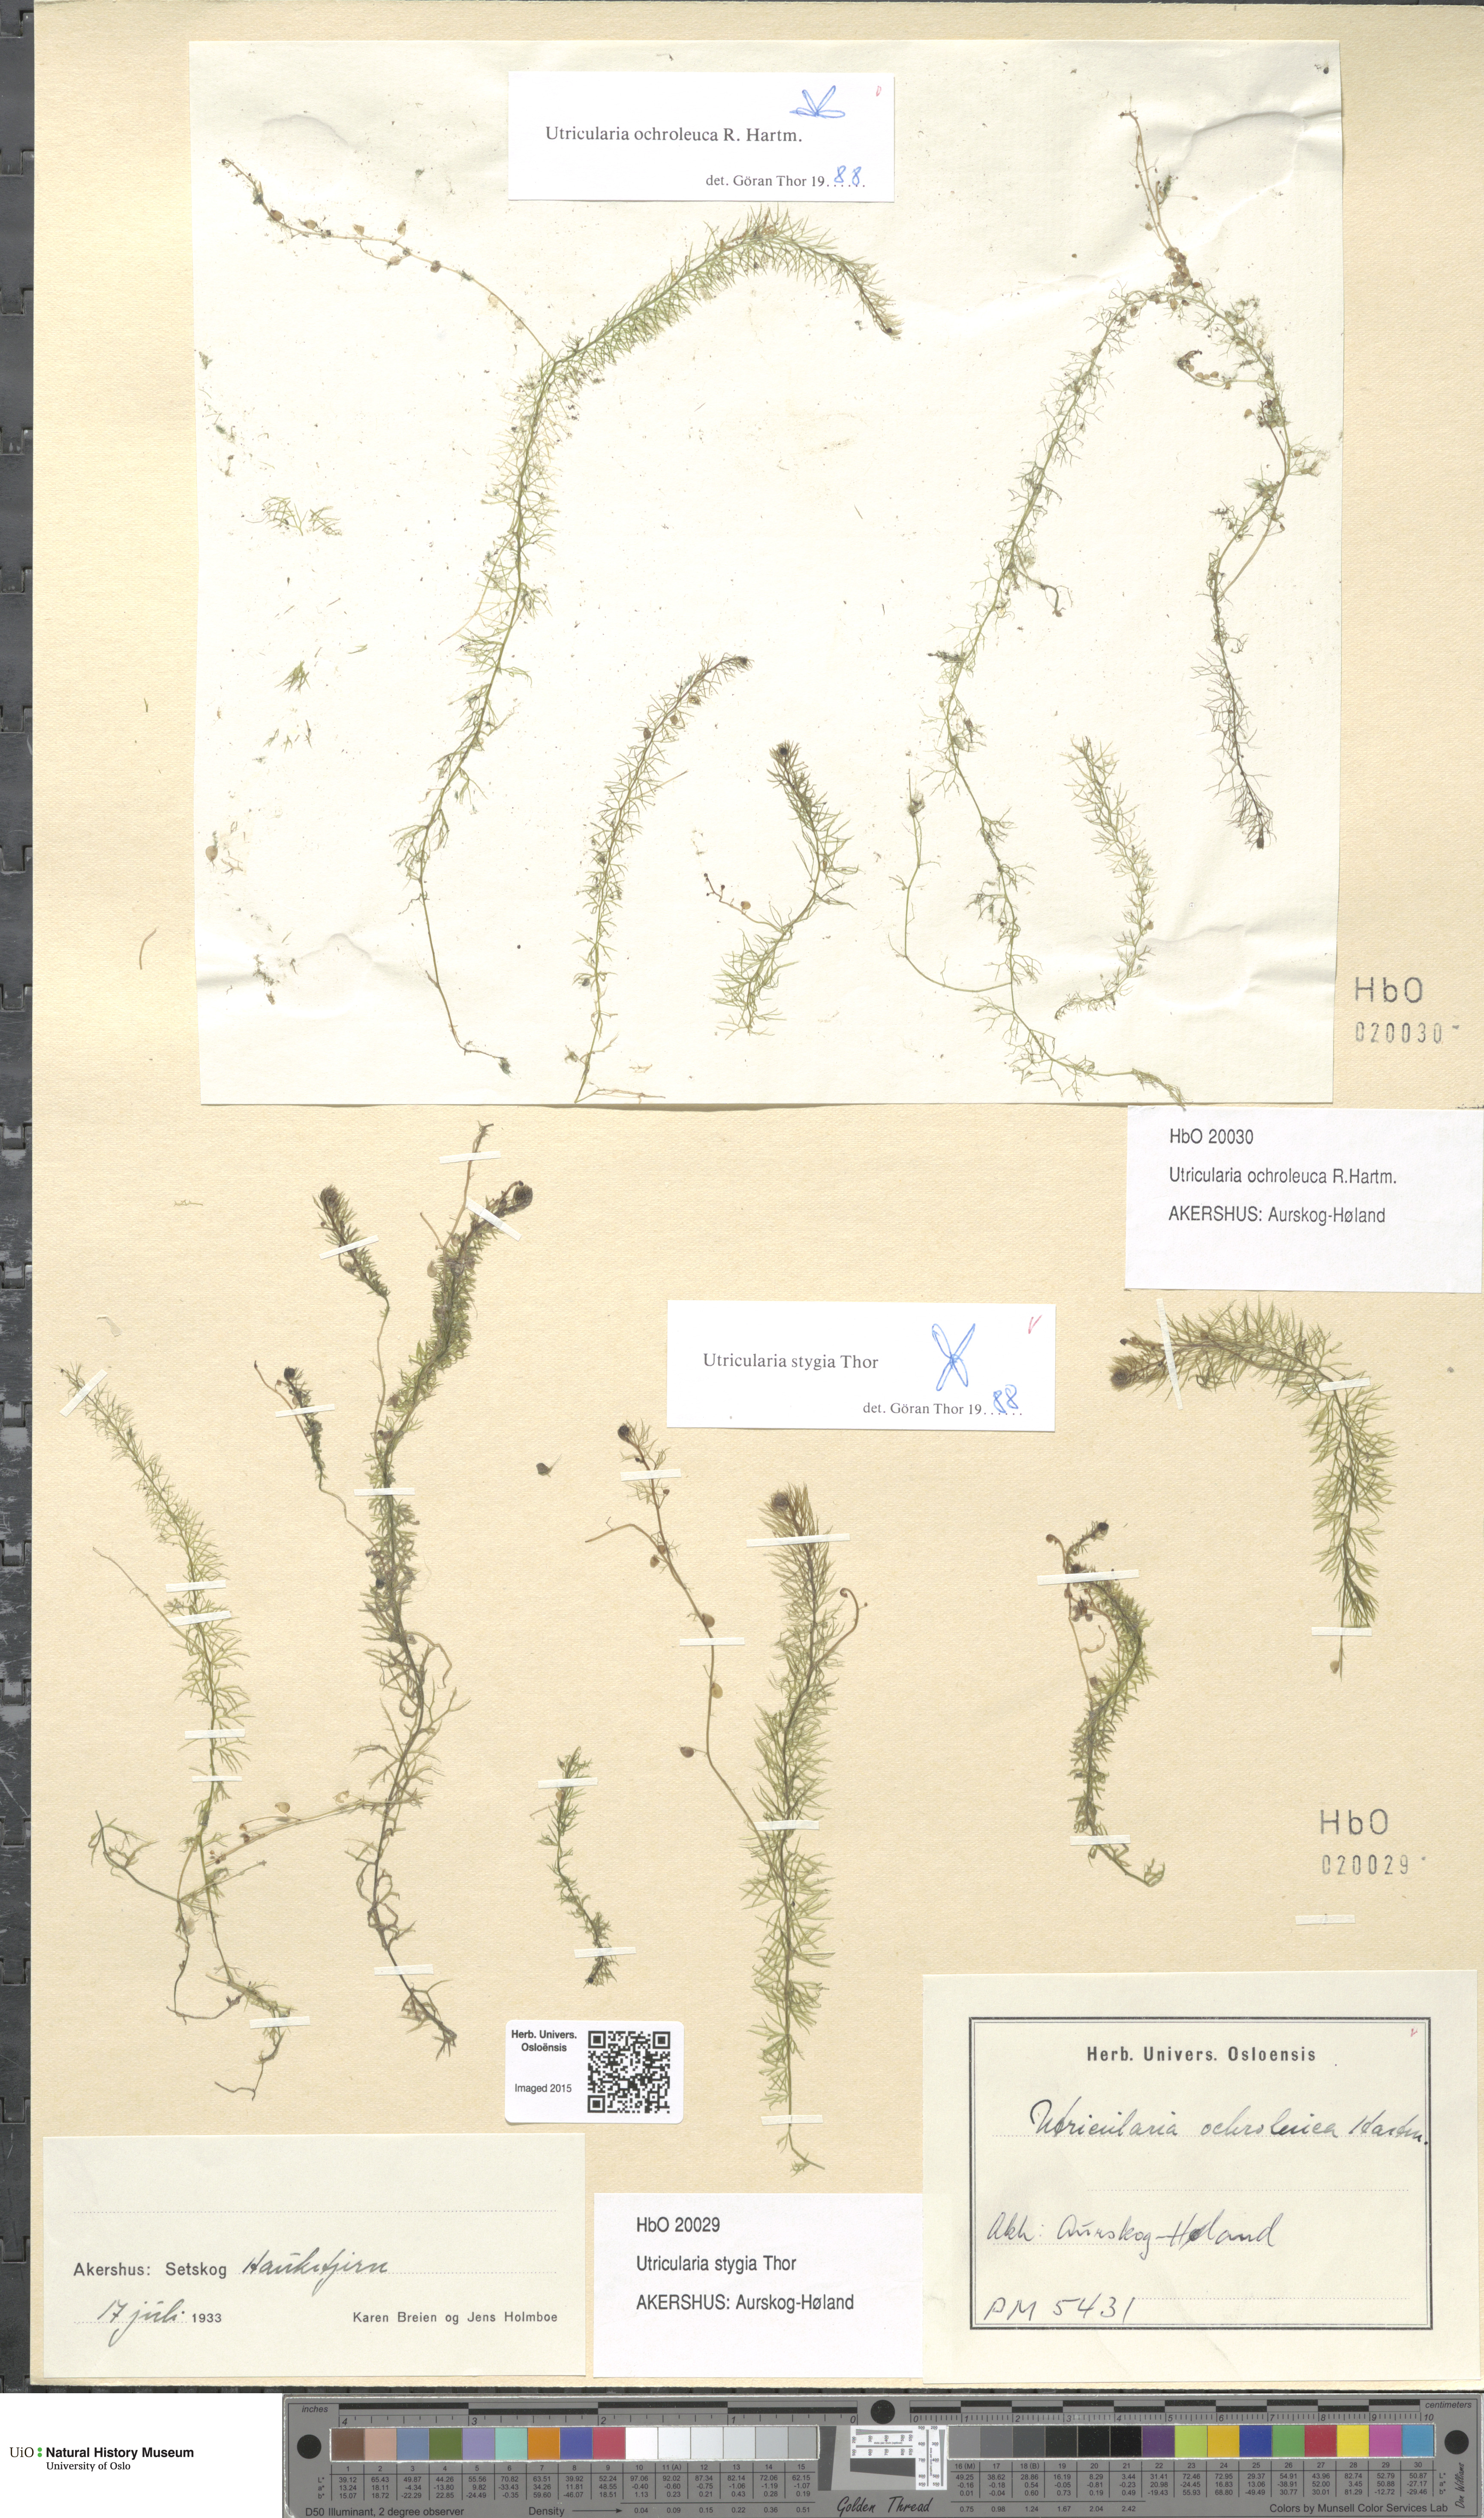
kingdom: Plantae
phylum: Tracheophyta
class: Magnoliopsida
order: Lamiales
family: Lentibulariaceae
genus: Utricularia
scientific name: Utricularia ochroleuca
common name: Pale bladderwort
